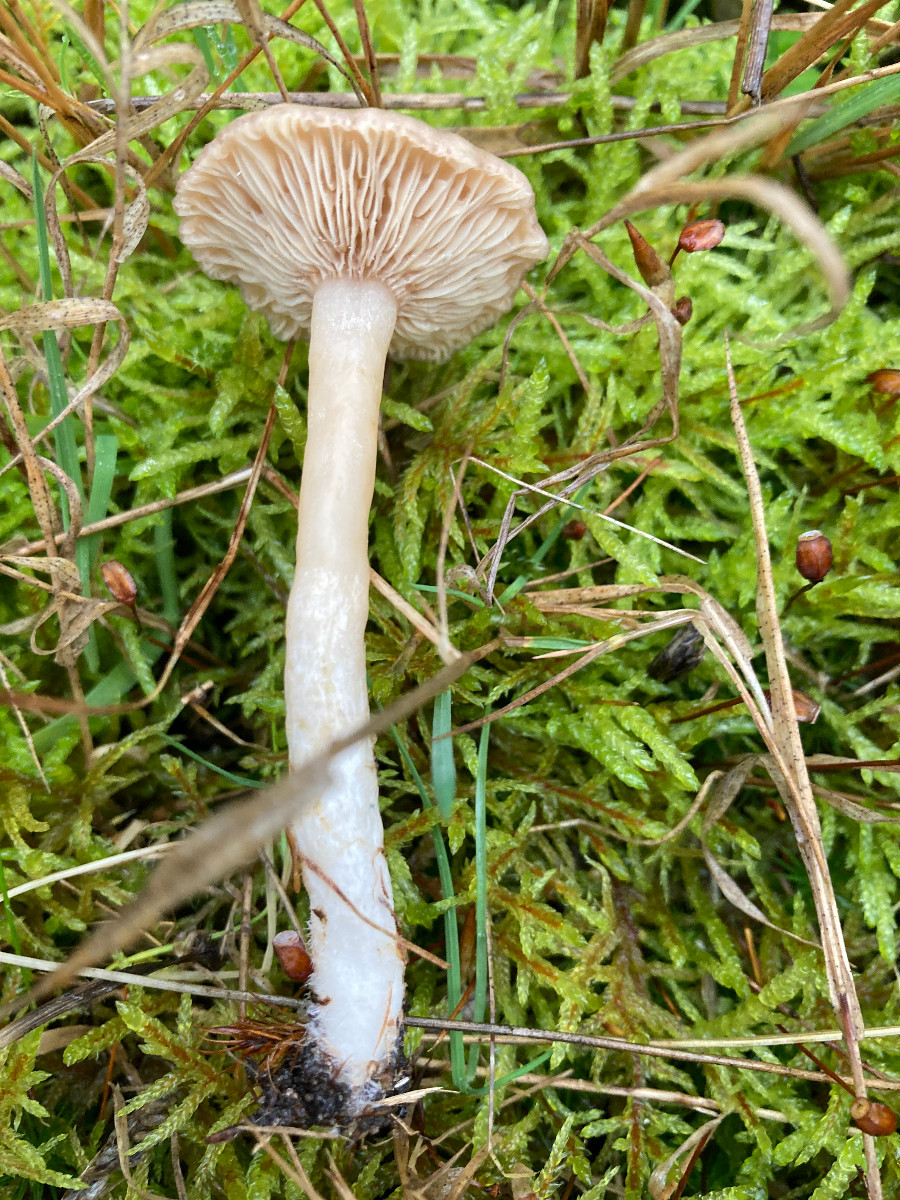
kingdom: Fungi
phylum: Basidiomycota
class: Agaricomycetes
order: Russulales
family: Russulaceae
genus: Lactarius
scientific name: Lactarius glyciosmus
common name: kokos-mælkehat
